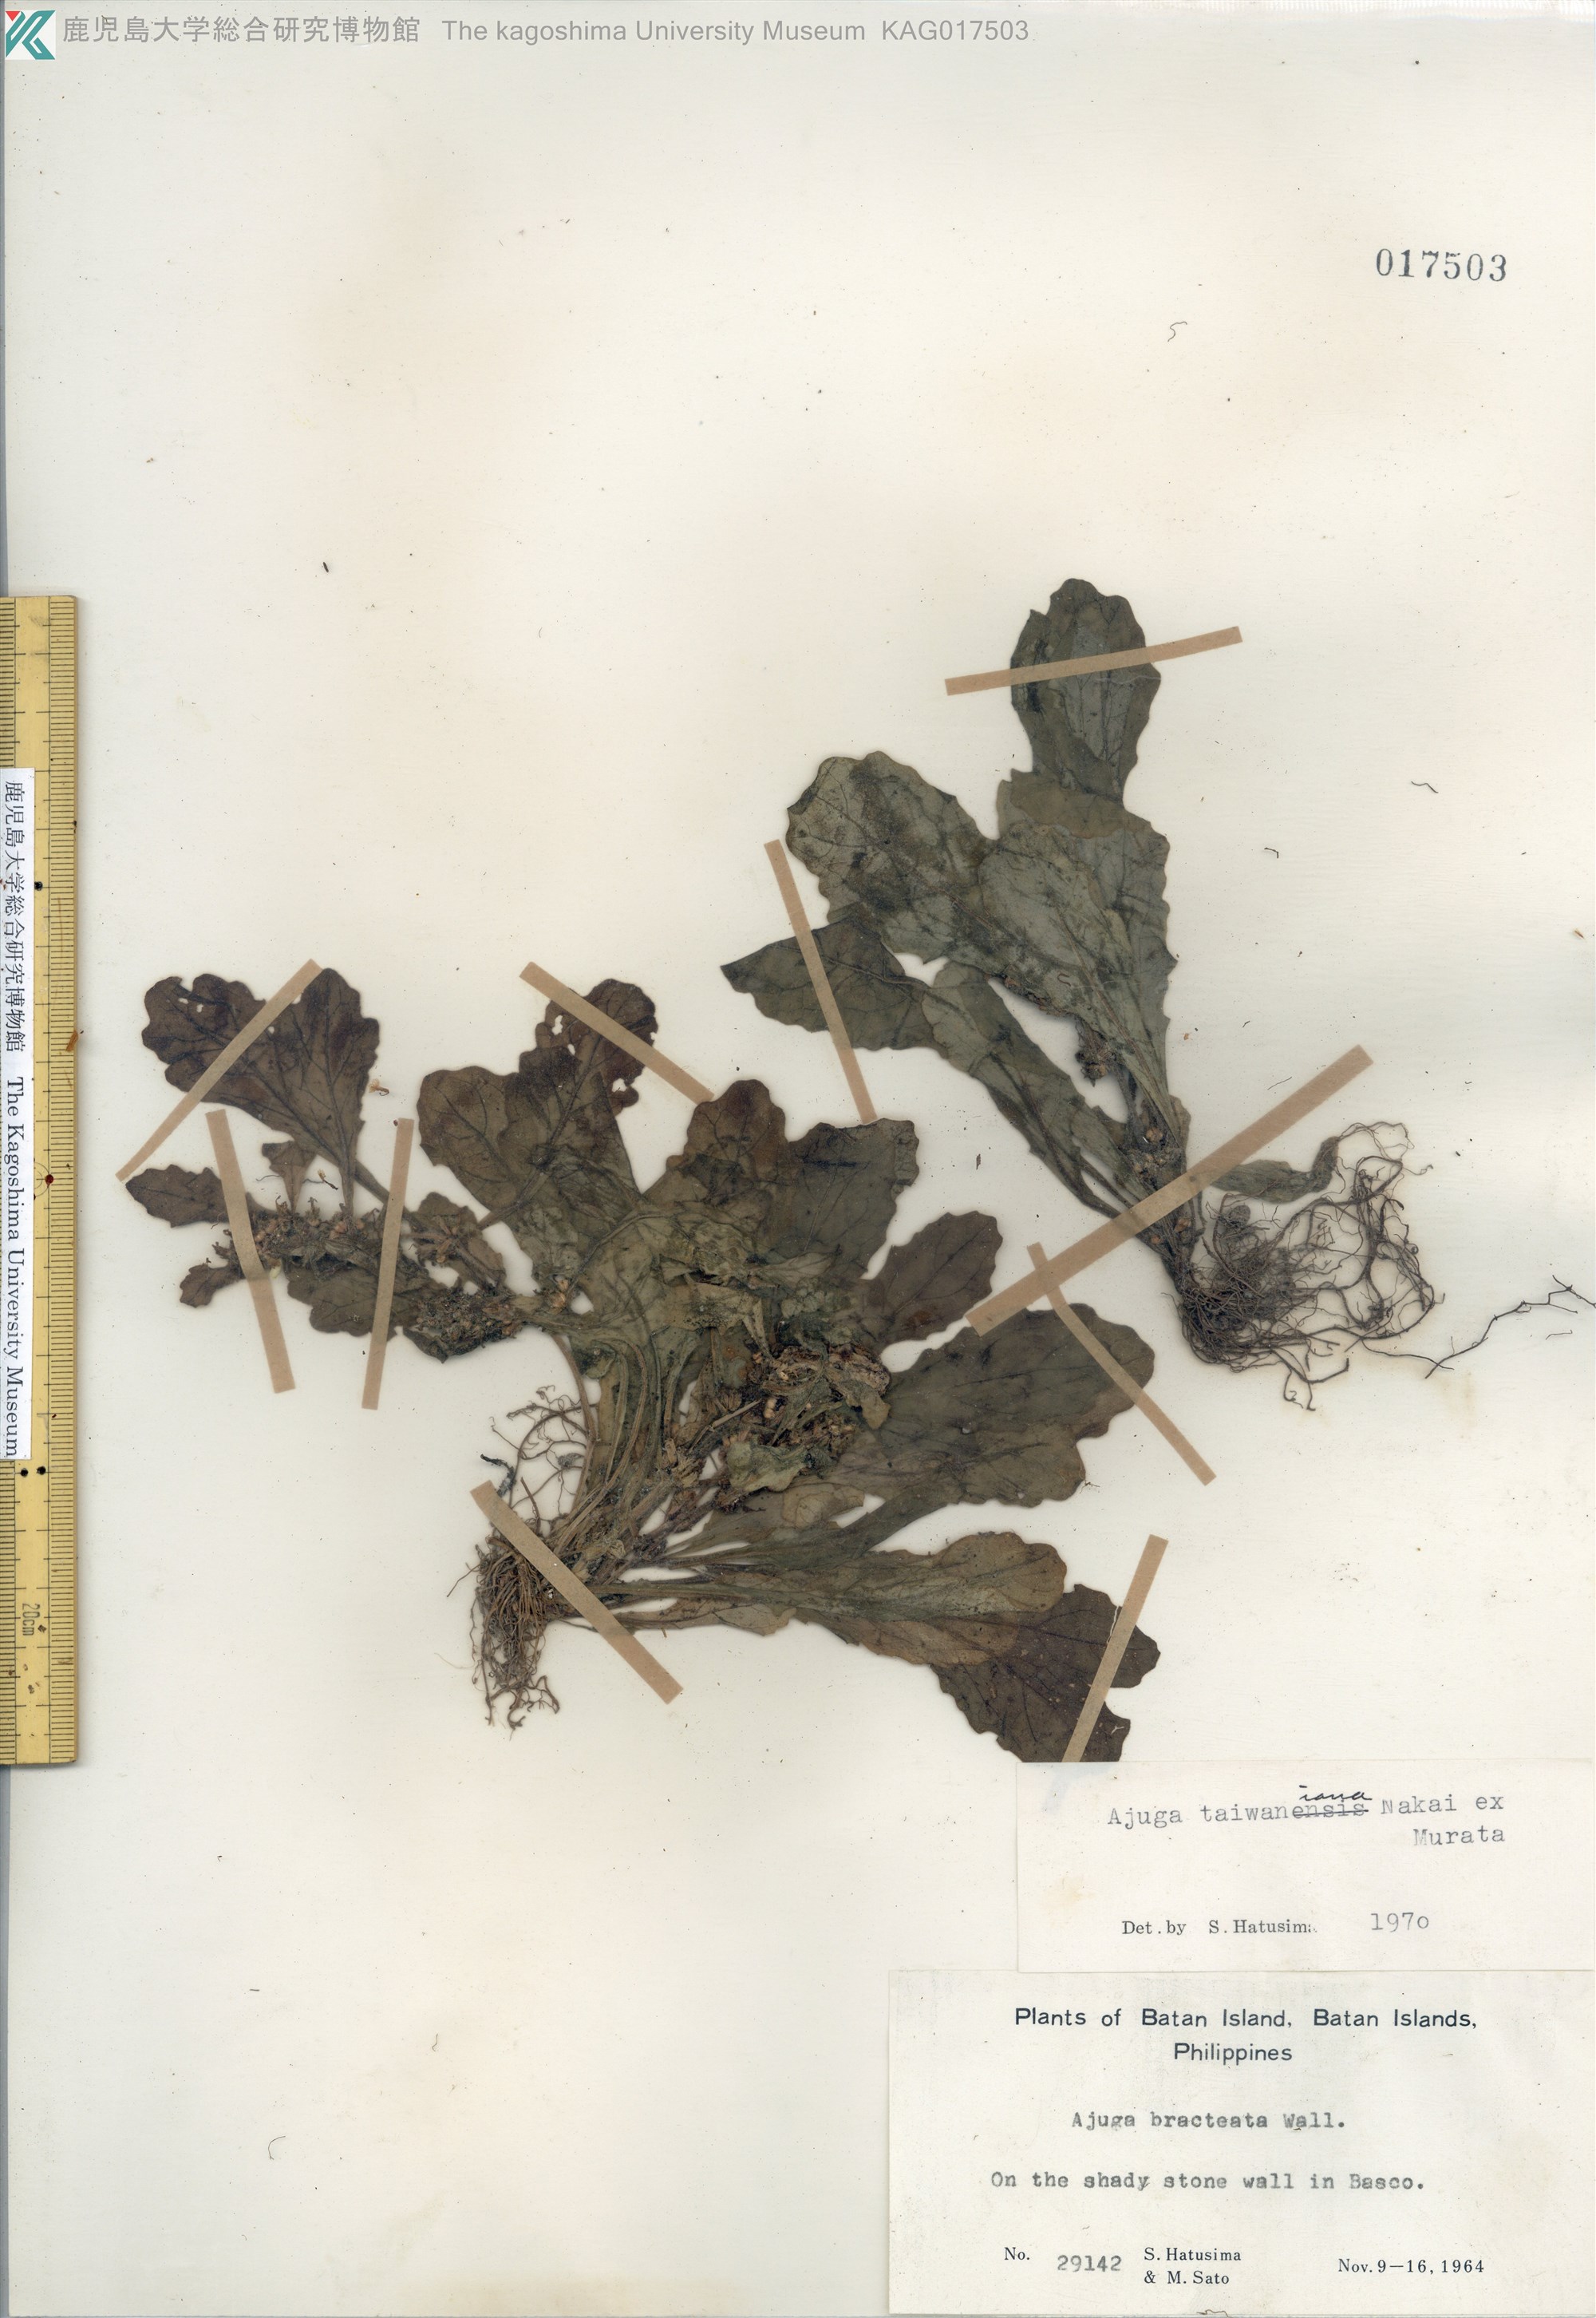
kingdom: Plantae
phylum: Tracheophyta
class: Magnoliopsida
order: Lamiales
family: Lamiaceae
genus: Ajuga
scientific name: Ajuga taiwanensis
